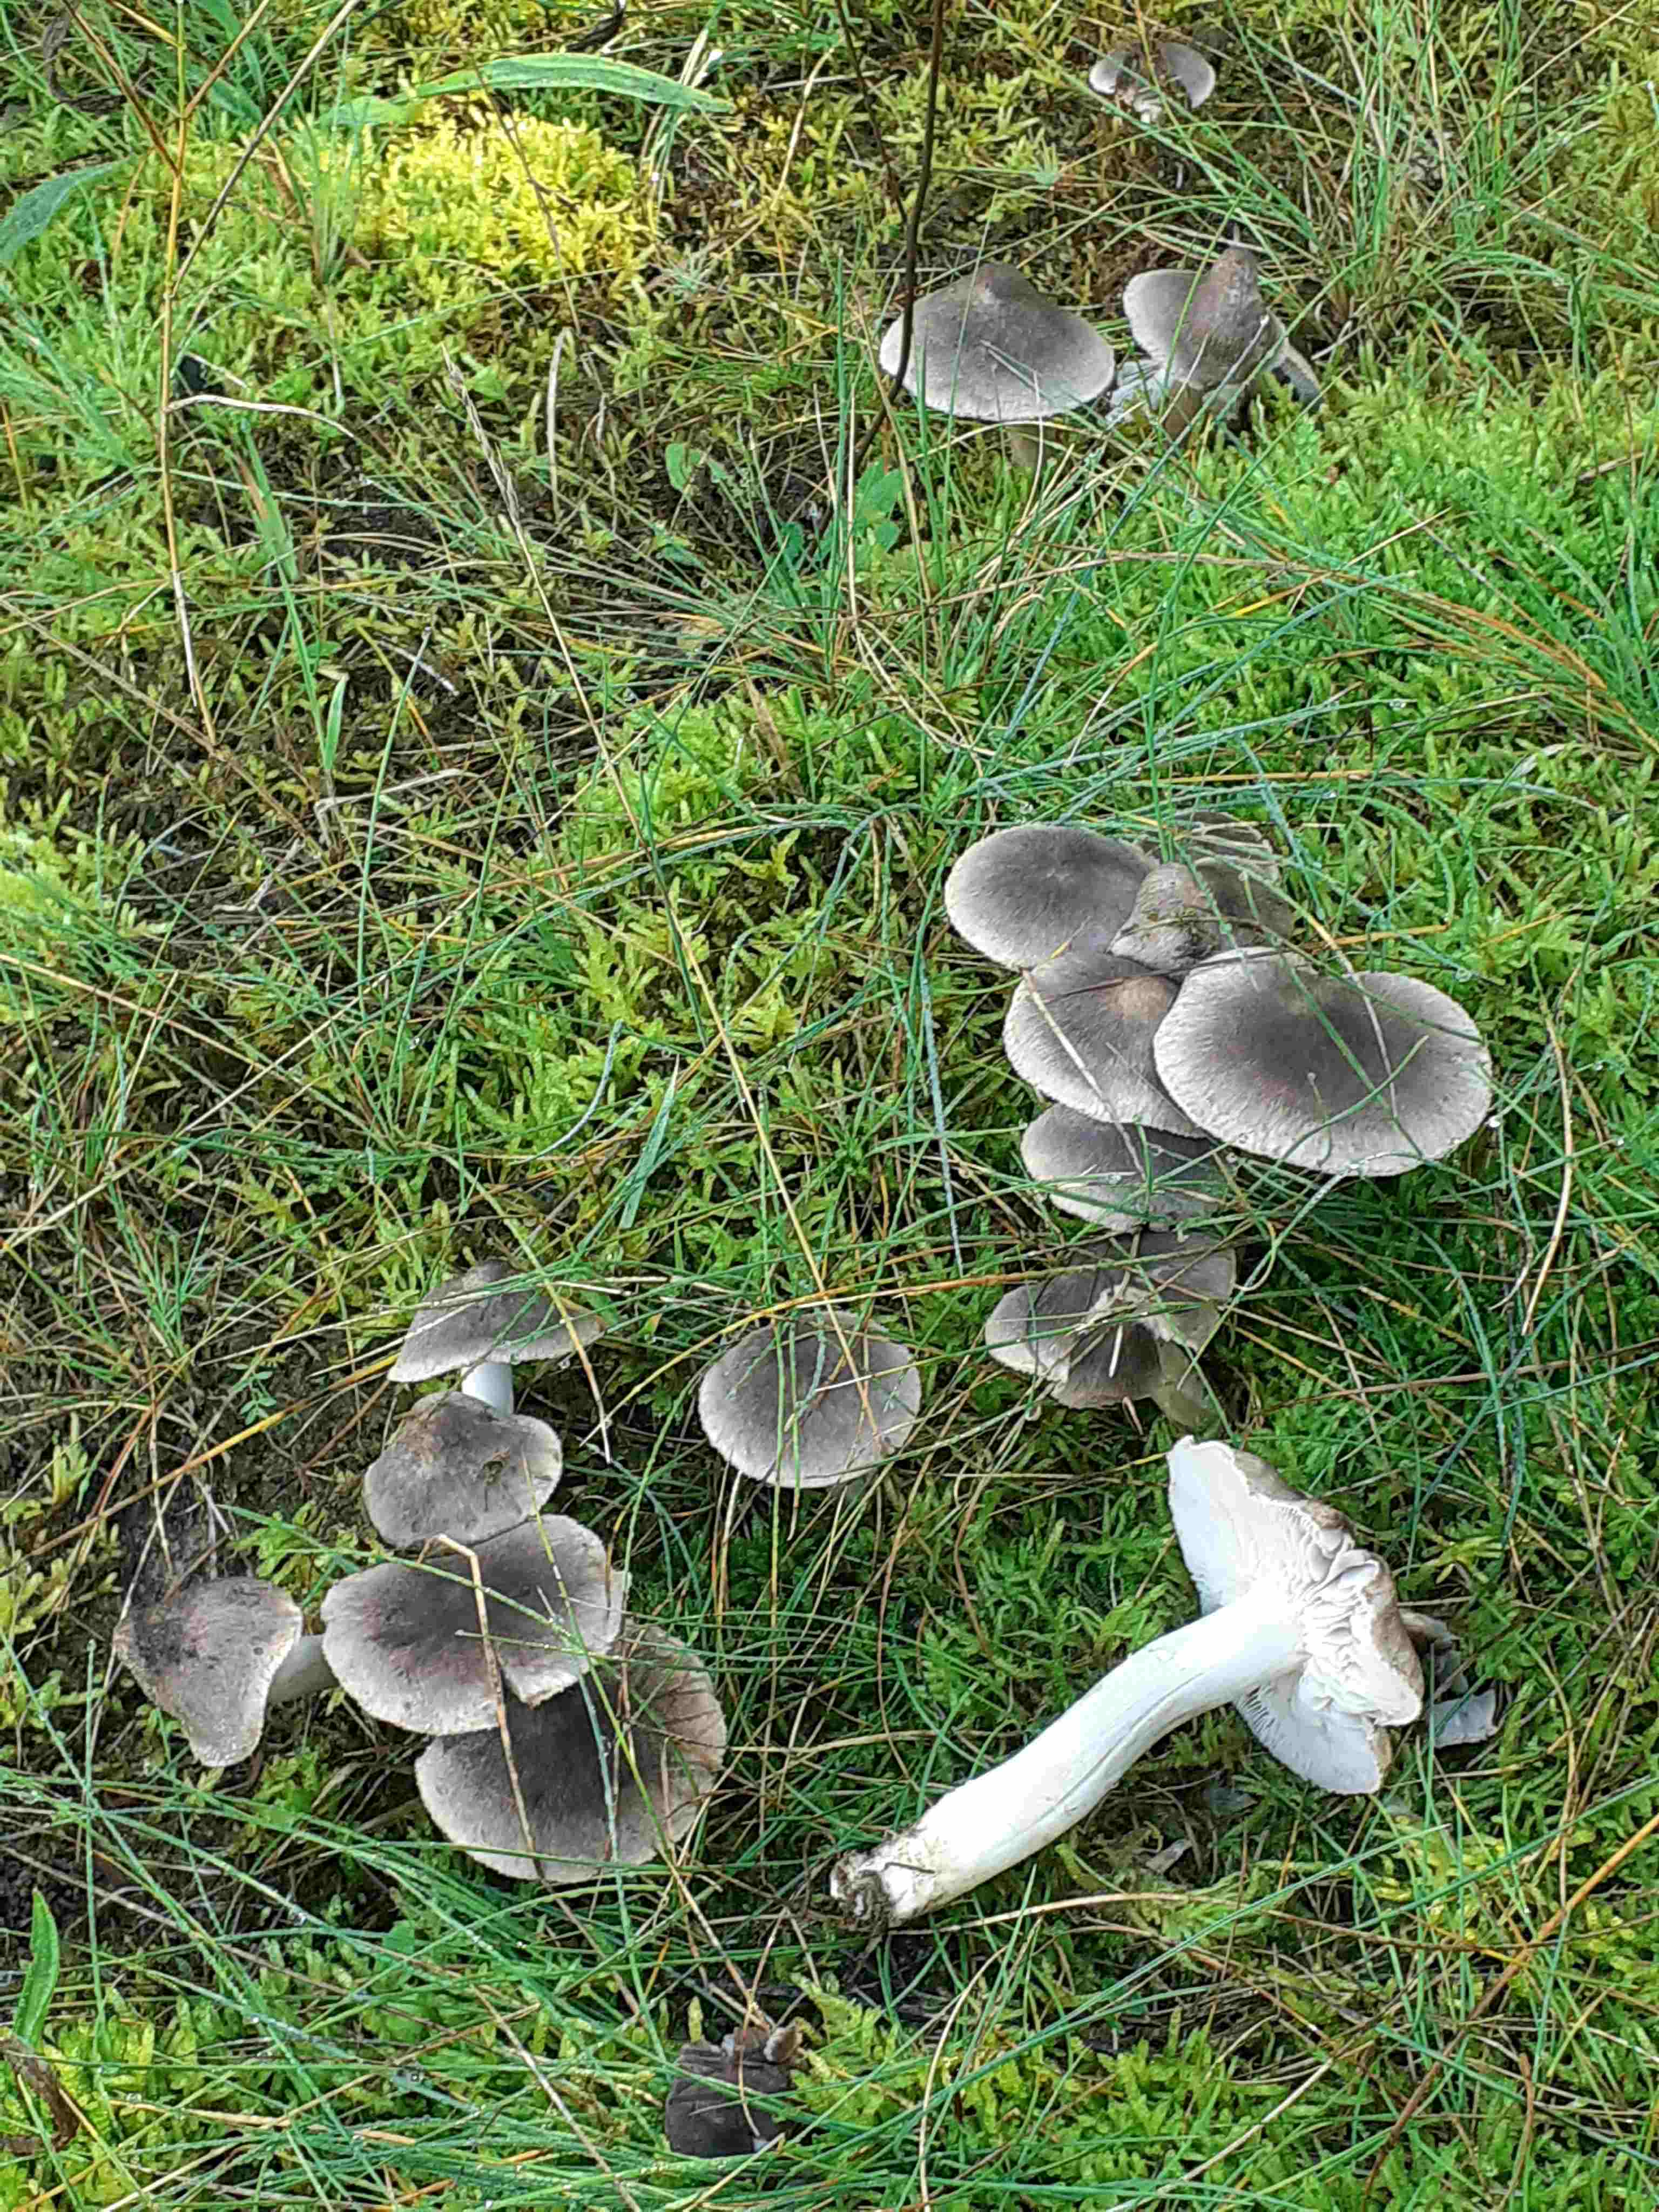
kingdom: Fungi
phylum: Basidiomycota
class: Agaricomycetes
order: Agaricales
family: Tricholomataceae
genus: Tricholoma
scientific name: Tricholoma terreum
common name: jordfarvet ridderhat
